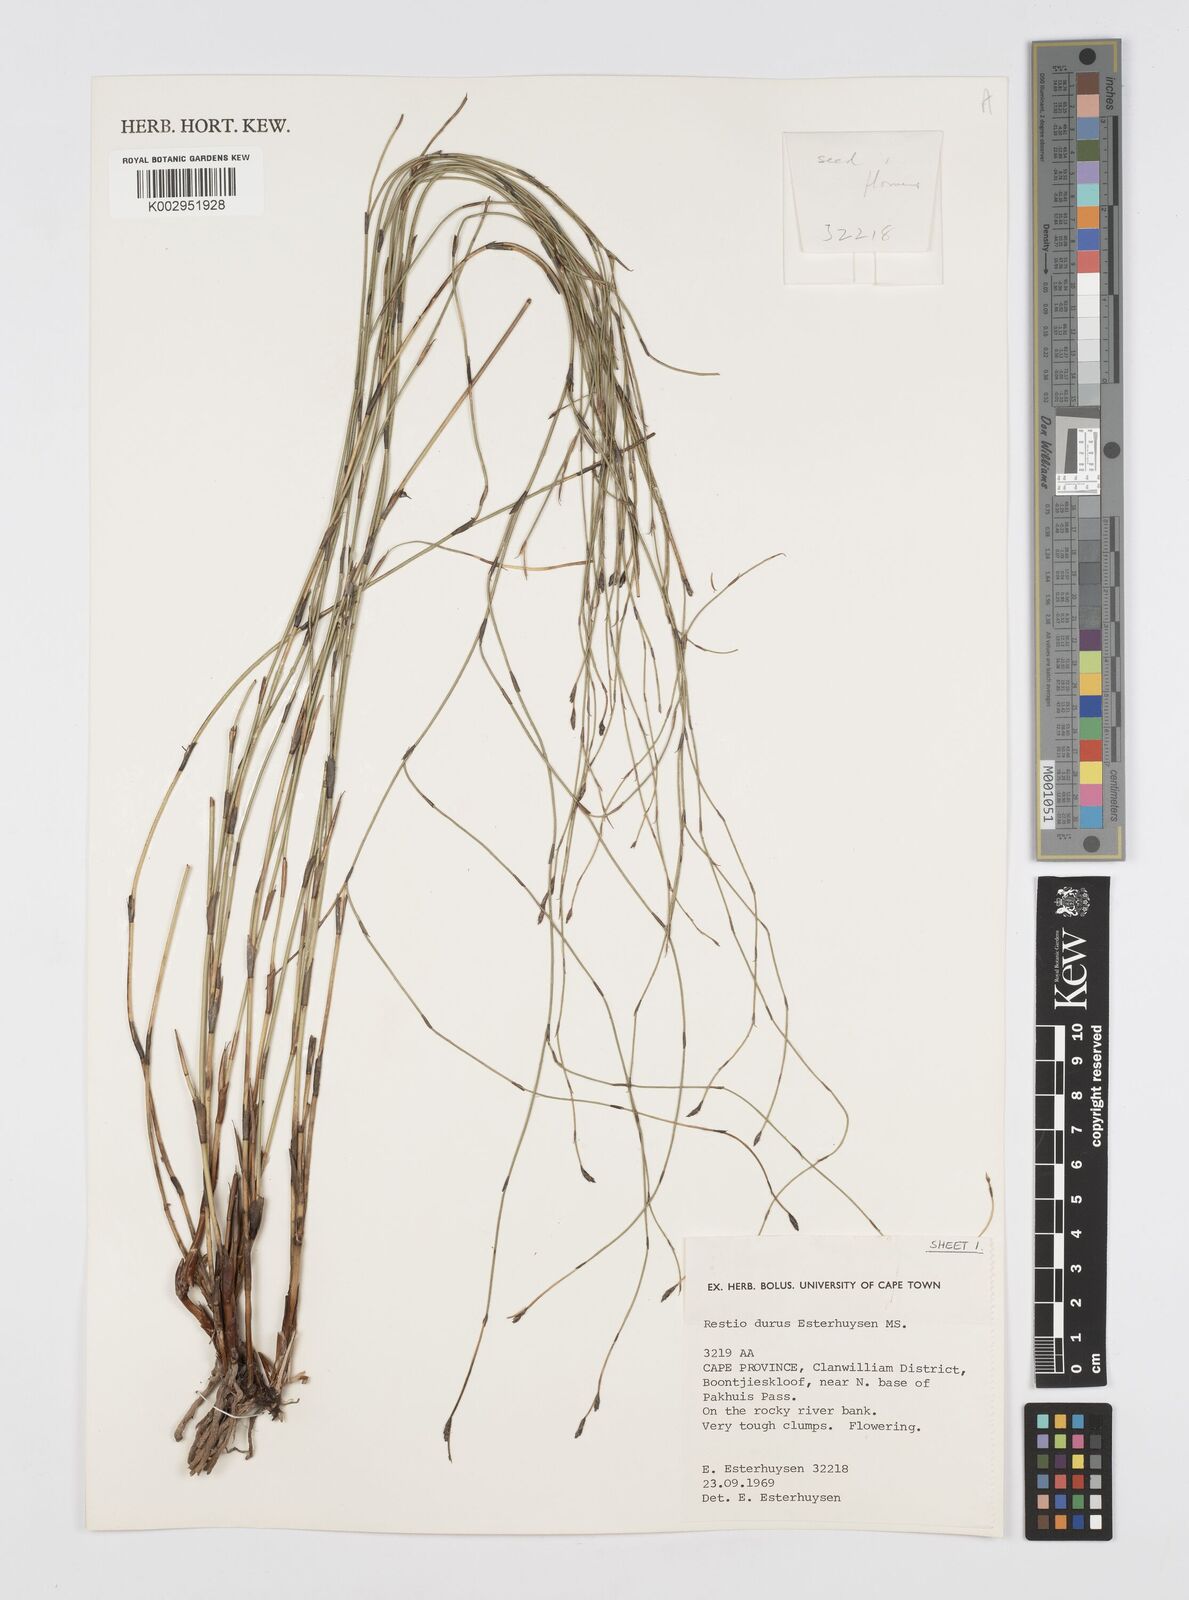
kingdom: Plantae
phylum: Tracheophyta
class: Liliopsida
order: Poales
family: Restionaceae
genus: Restio
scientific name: Restio durus
